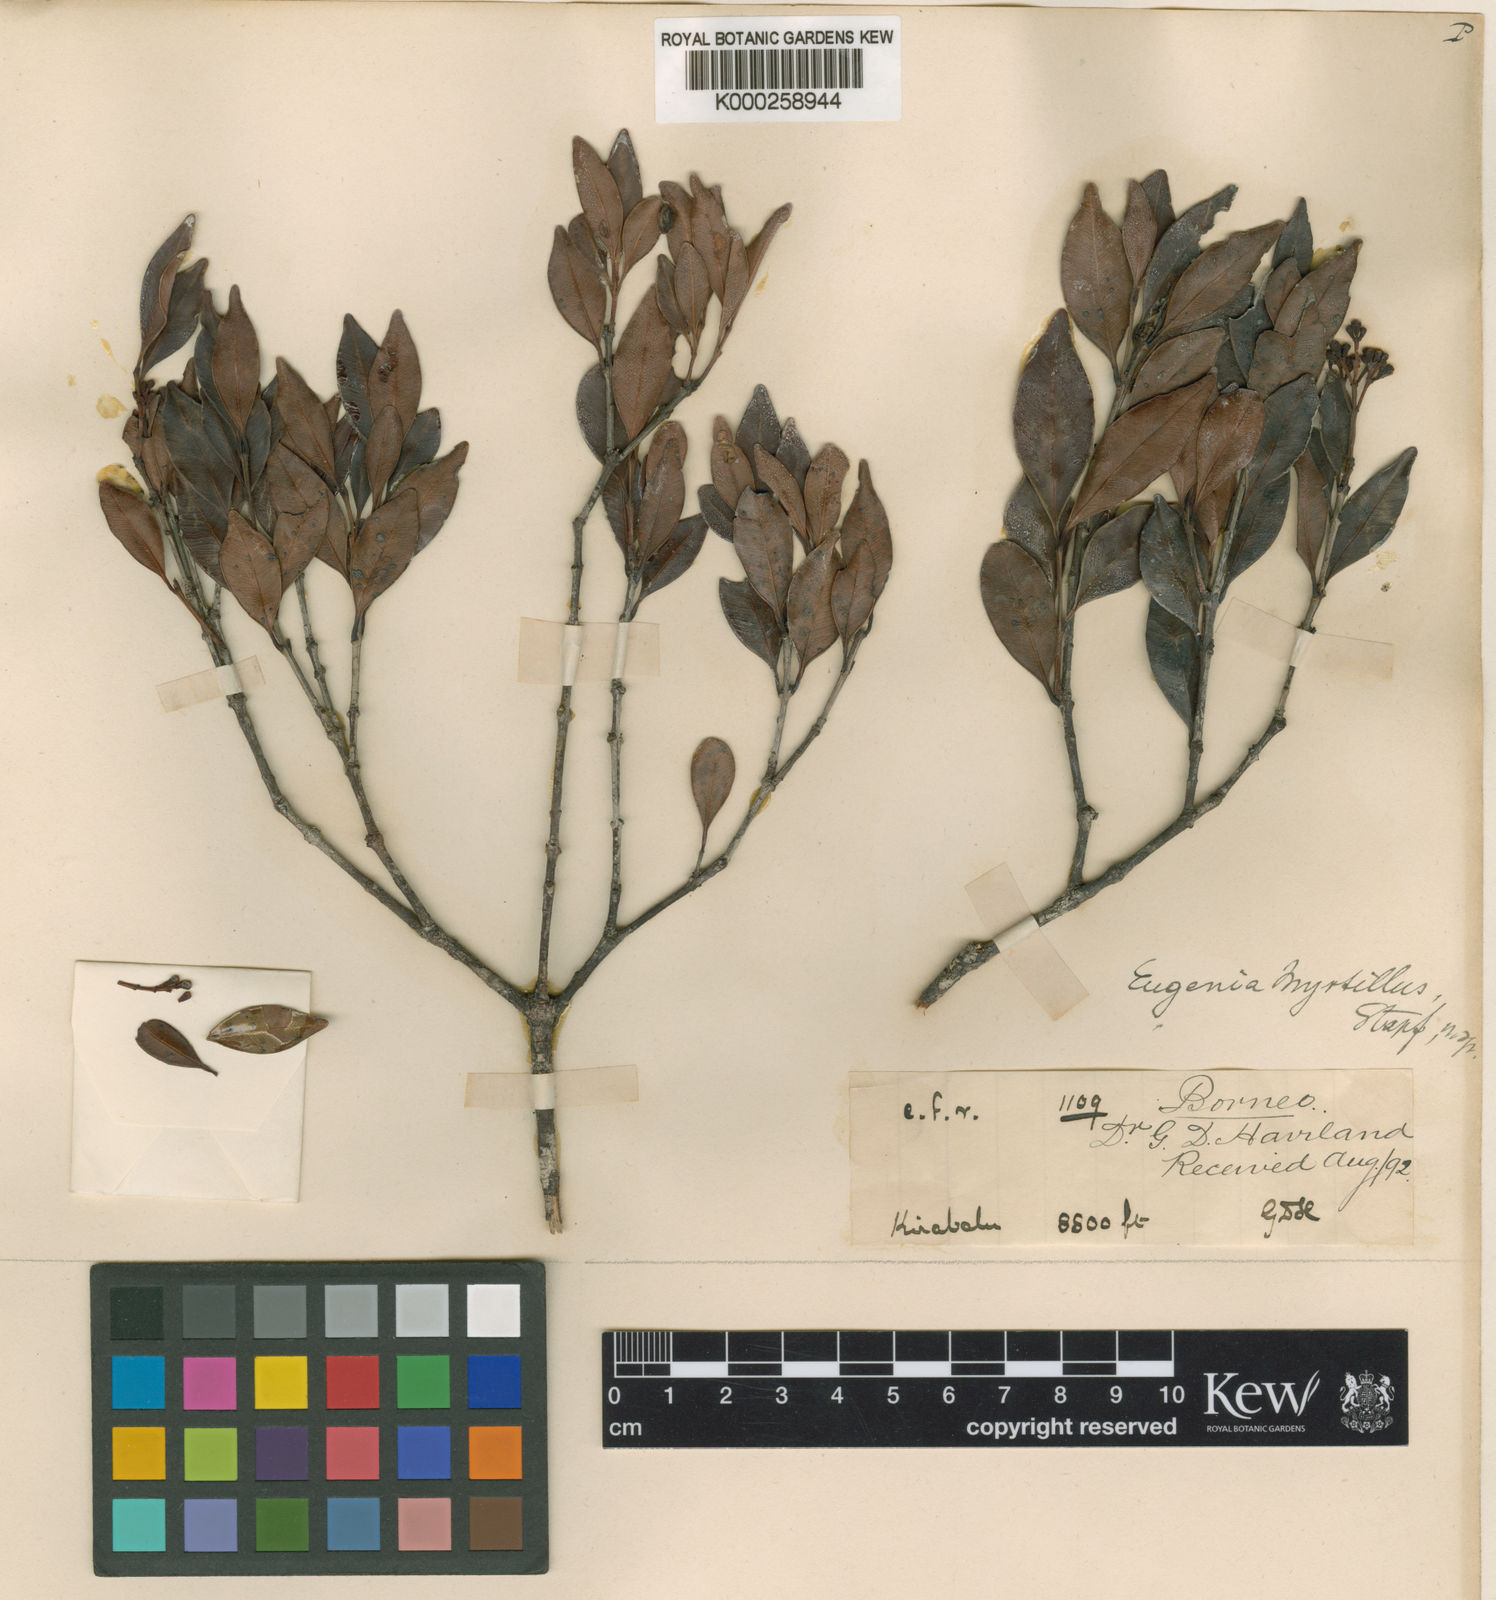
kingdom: Plantae
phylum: Tracheophyta
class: Magnoliopsida
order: Myrtales
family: Myrtaceae
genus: Syzygium
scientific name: Syzygium myrtillus
